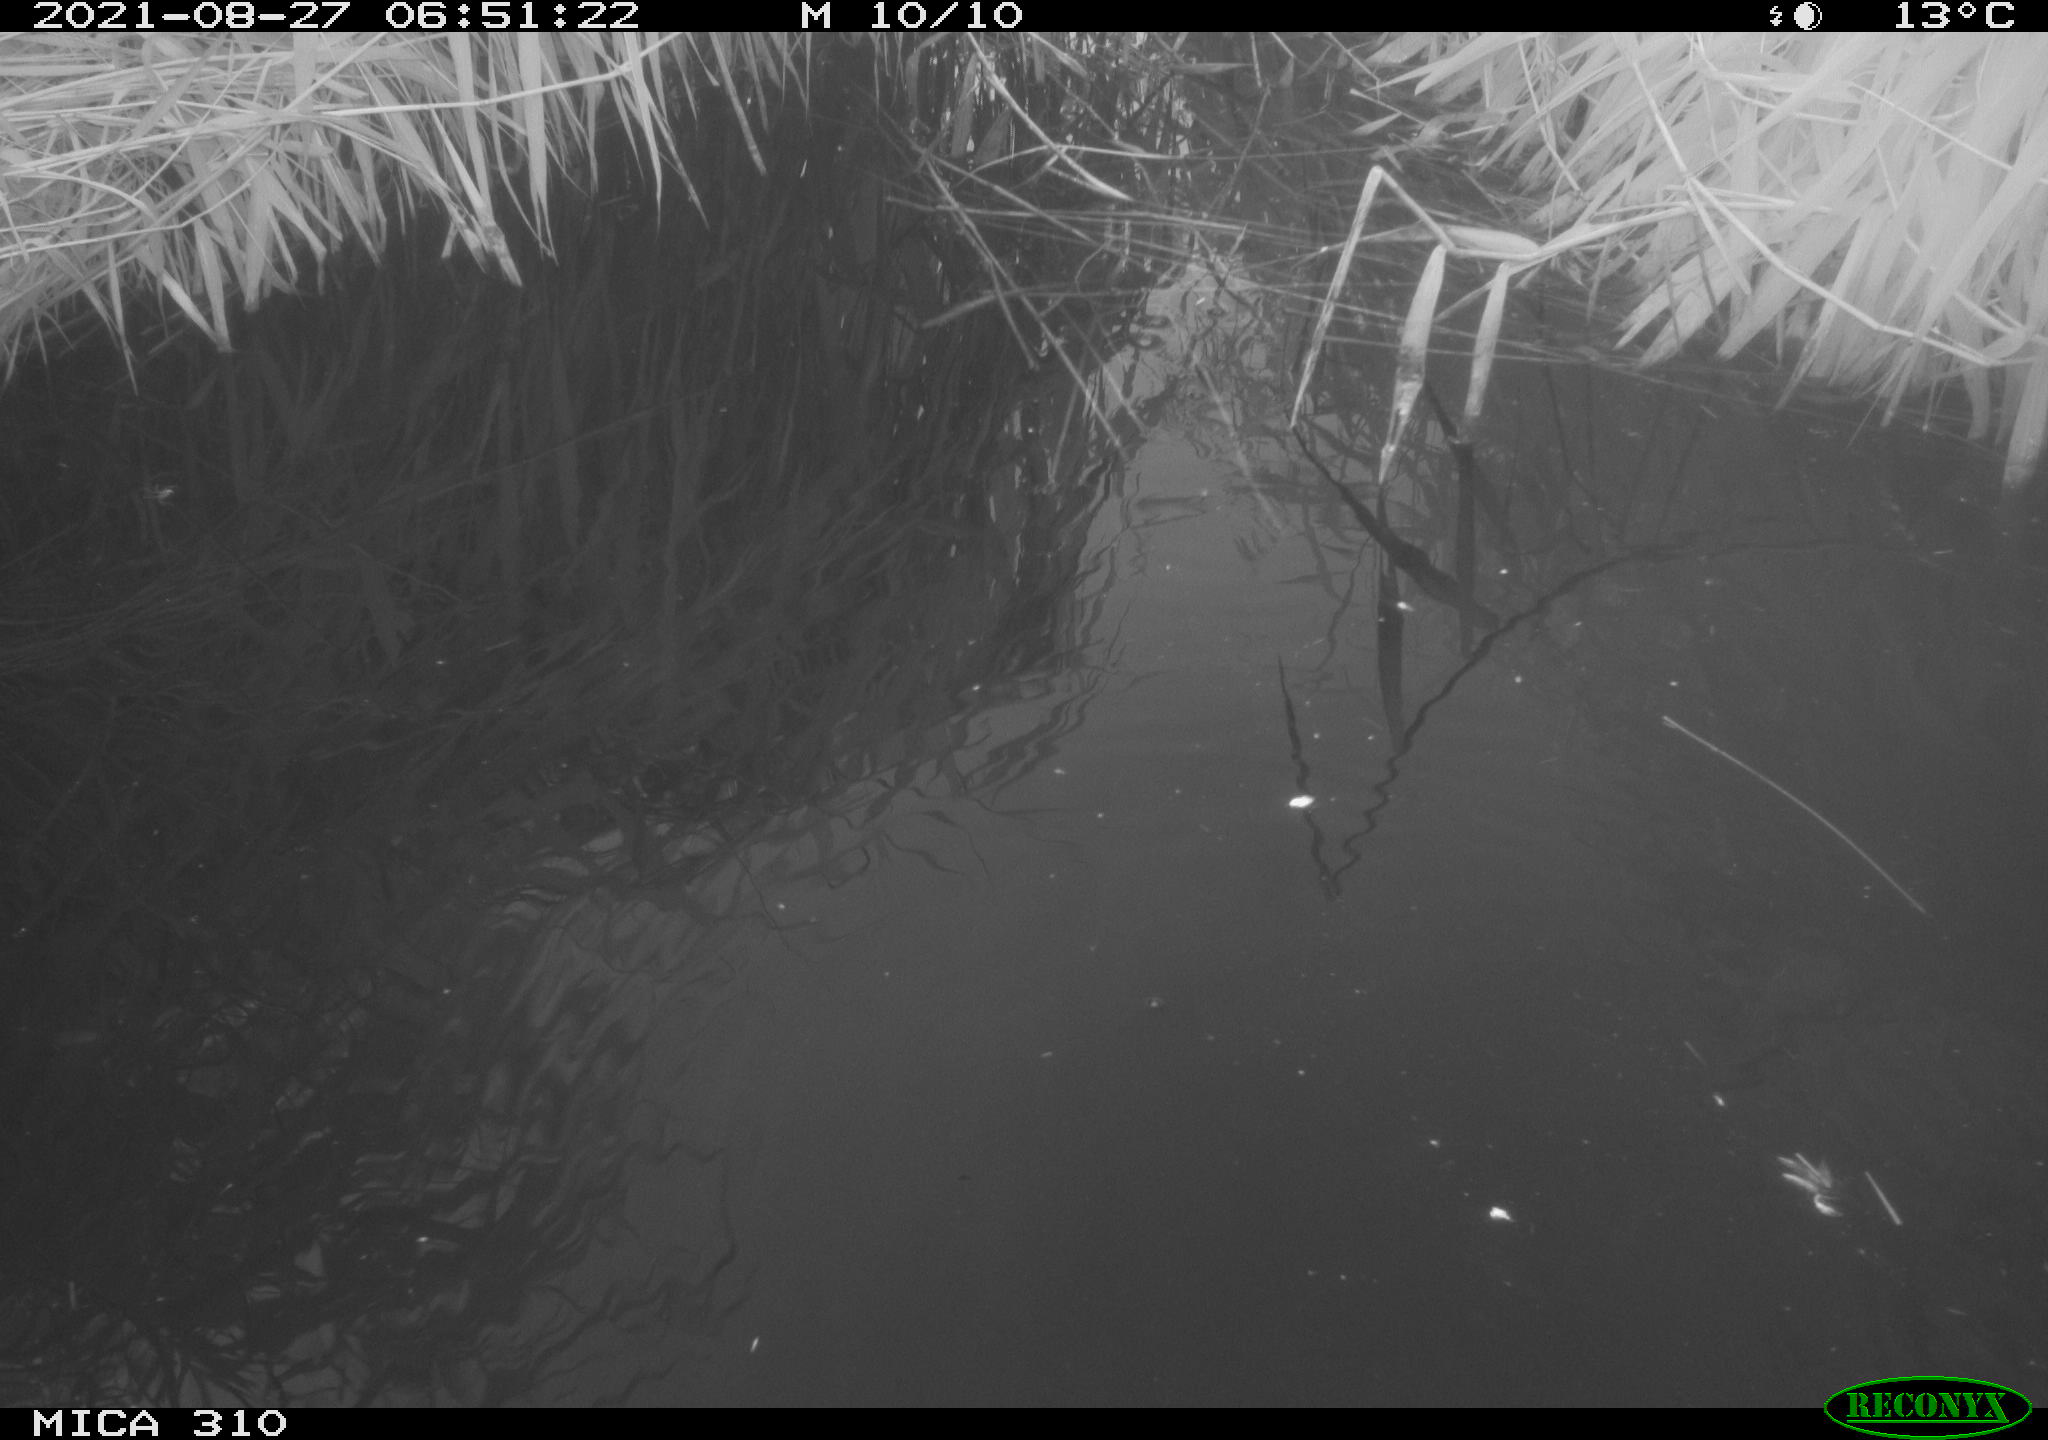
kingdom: Animalia
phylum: Chordata
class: Aves
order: Anseriformes
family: Anatidae
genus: Mareca
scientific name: Mareca strepera
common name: Gadwall
